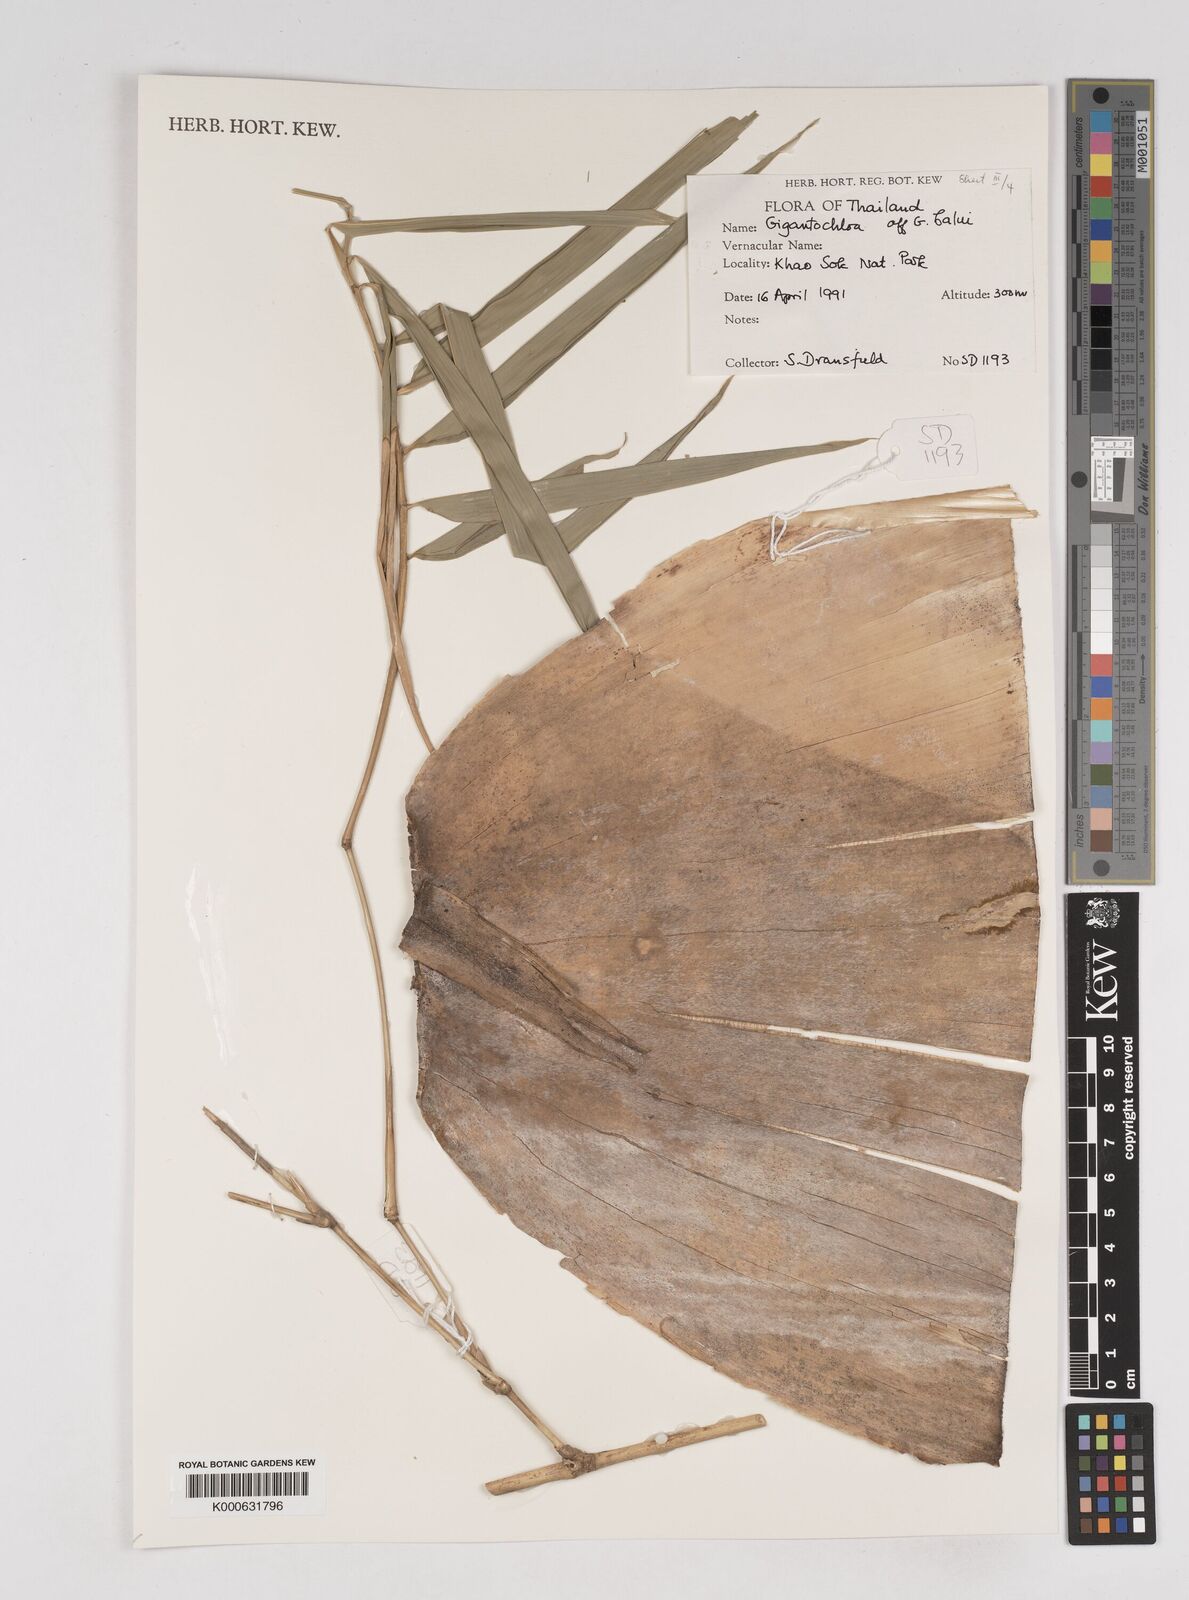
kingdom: Plantae
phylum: Tracheophyta
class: Liliopsida
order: Poales
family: Poaceae
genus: Gigantochloa
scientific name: Gigantochloa
